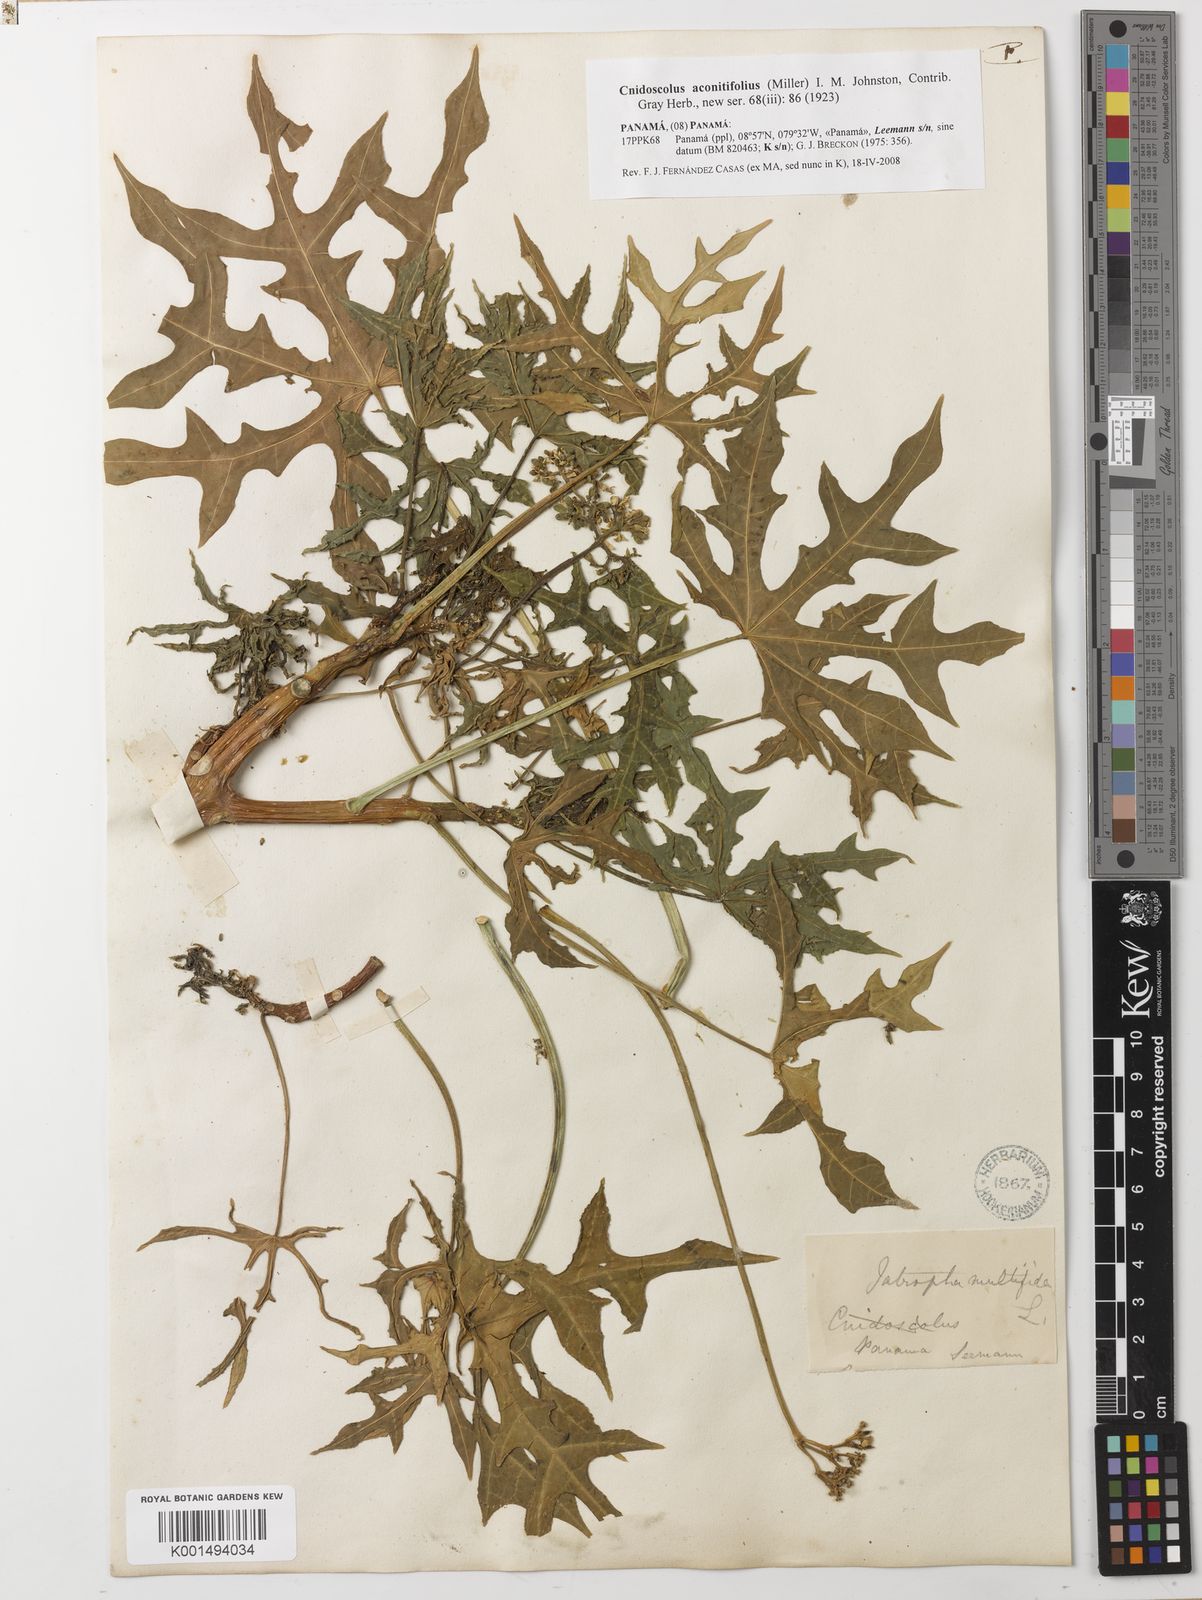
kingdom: Plantae
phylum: Tracheophyta
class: Magnoliopsida
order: Malpighiales
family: Euphorbiaceae
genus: Cnidoscolus
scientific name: Cnidoscolus aconitifolius
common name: Cabbage-star
